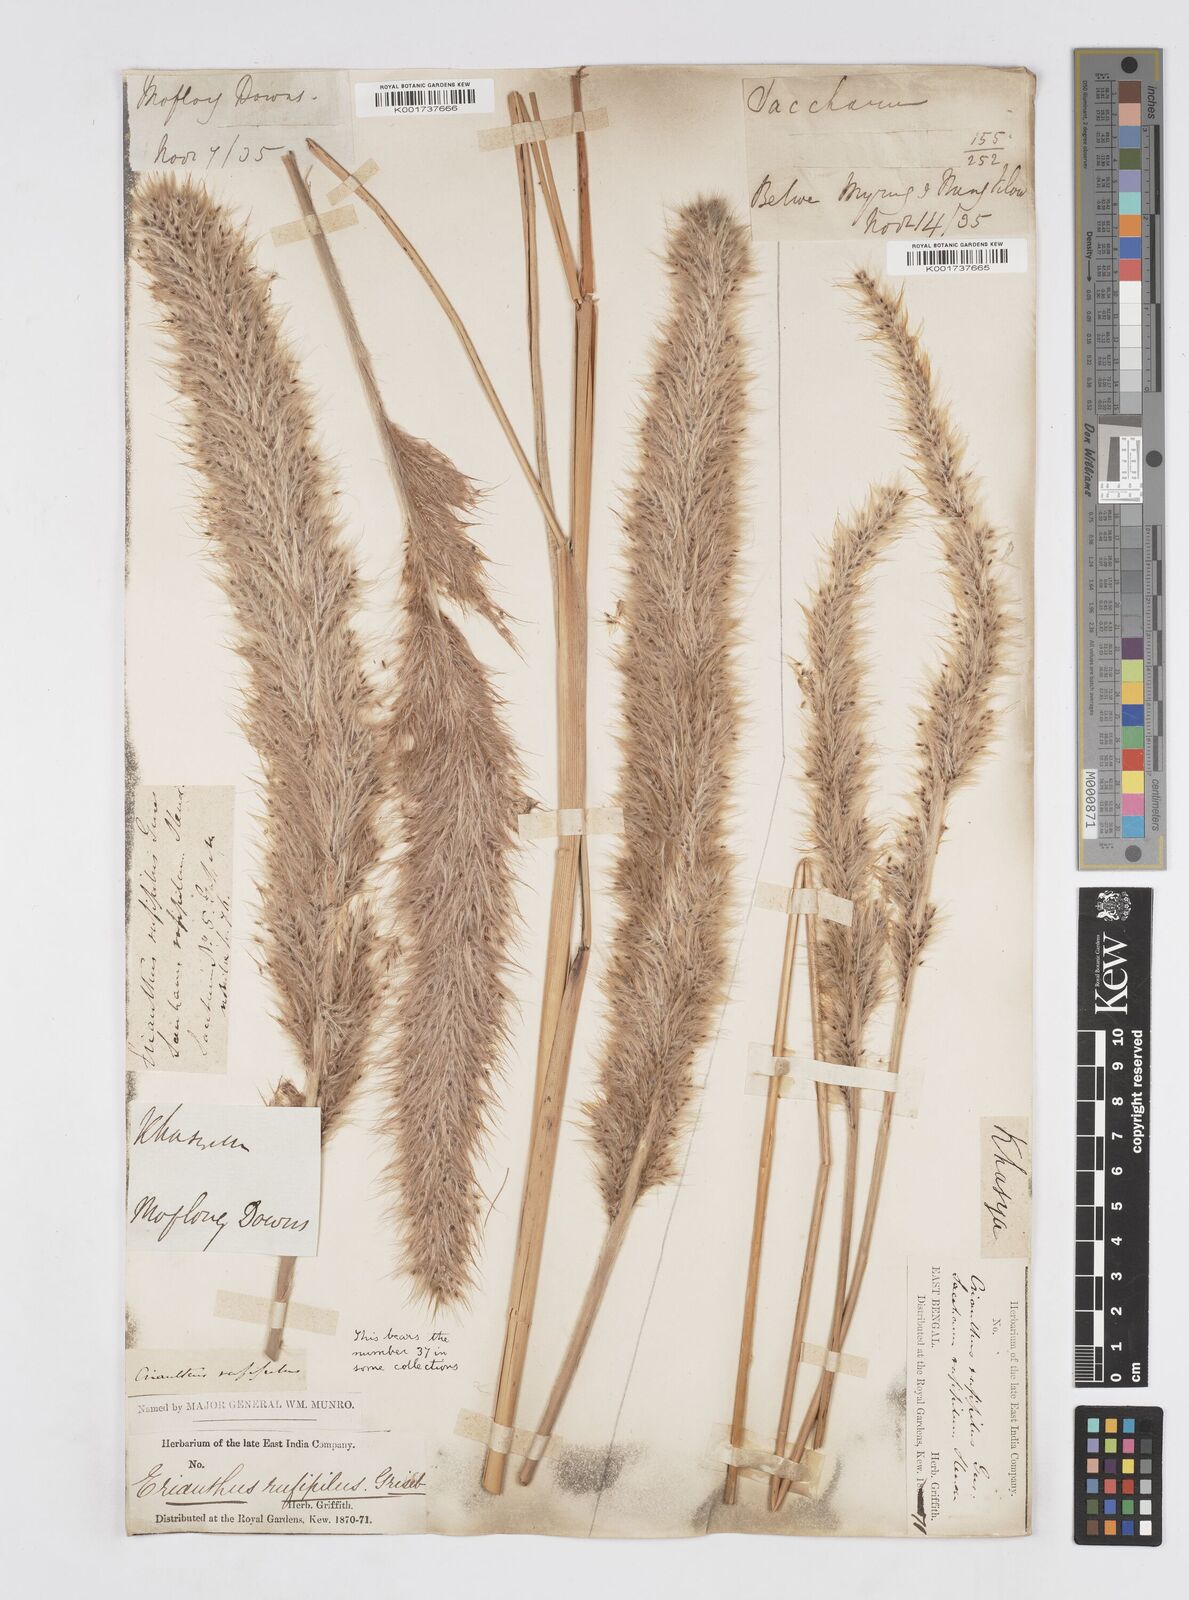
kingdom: Plantae
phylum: Tracheophyta
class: Liliopsida
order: Poales
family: Poaceae
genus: Tripidium
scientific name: Tripidium rufipilum
